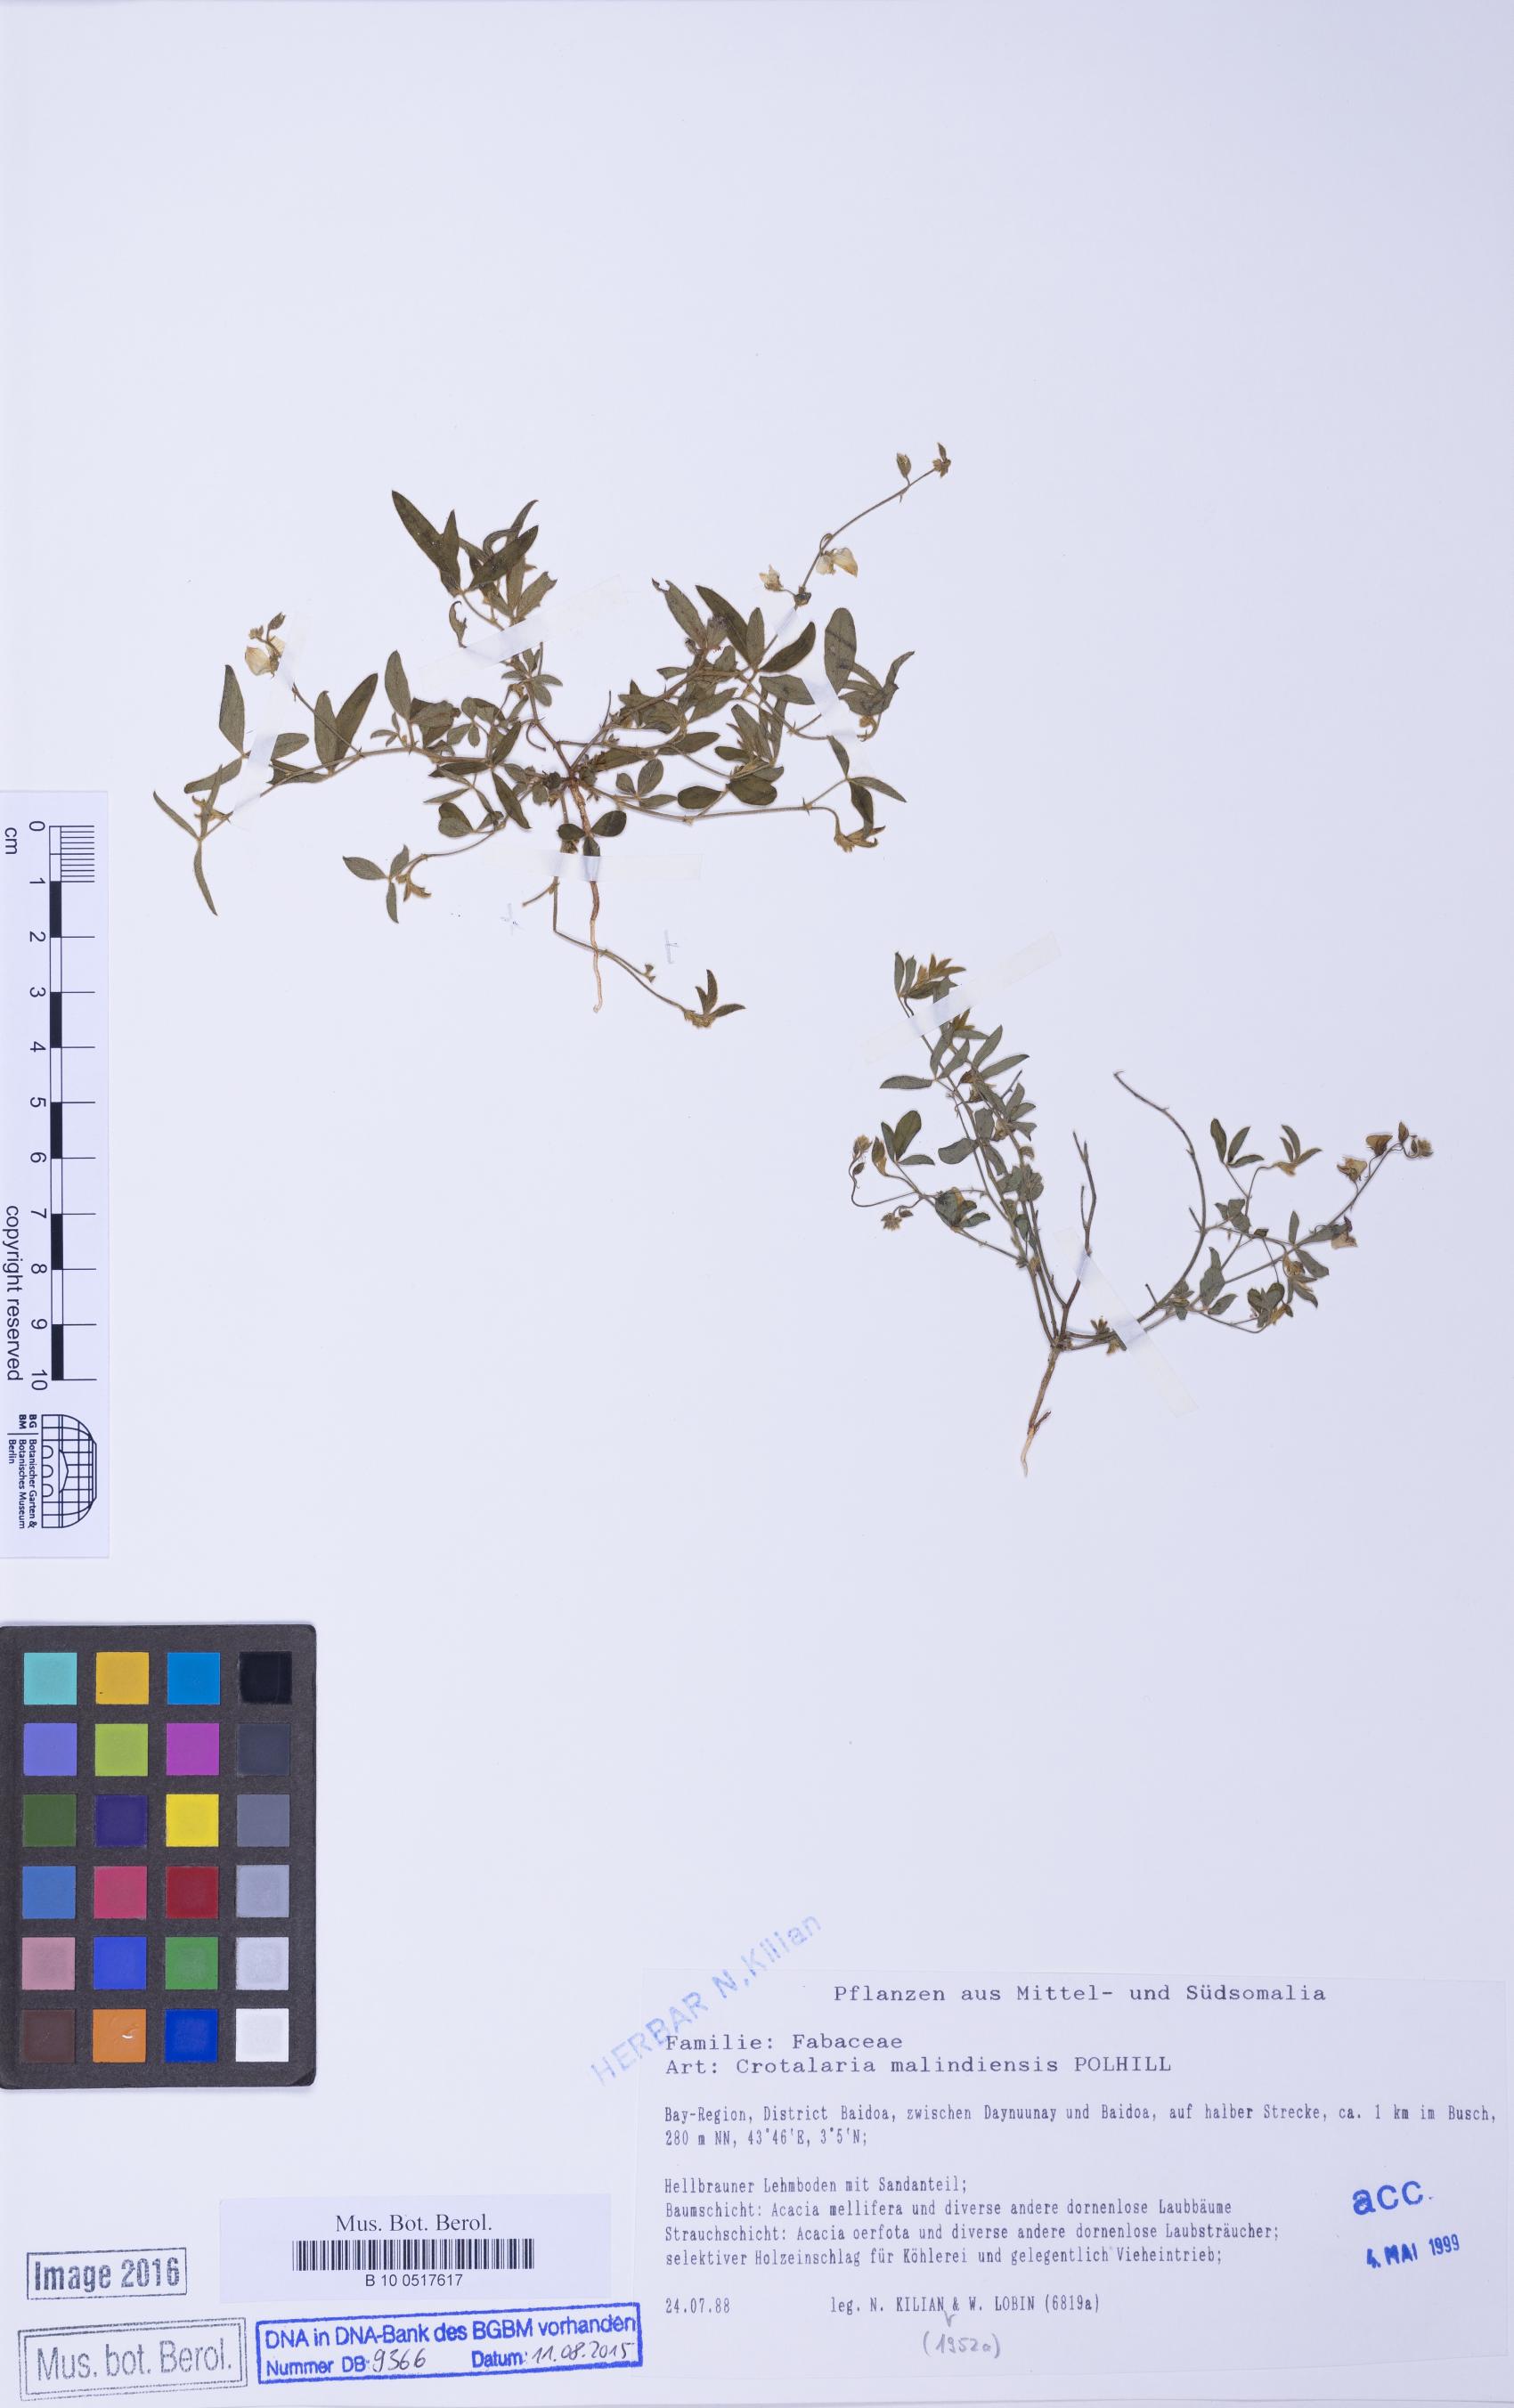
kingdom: Plantae
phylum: Tracheophyta
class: Magnoliopsida
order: Fabales
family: Fabaceae
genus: Crotalaria
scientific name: Crotalaria malindiensis
